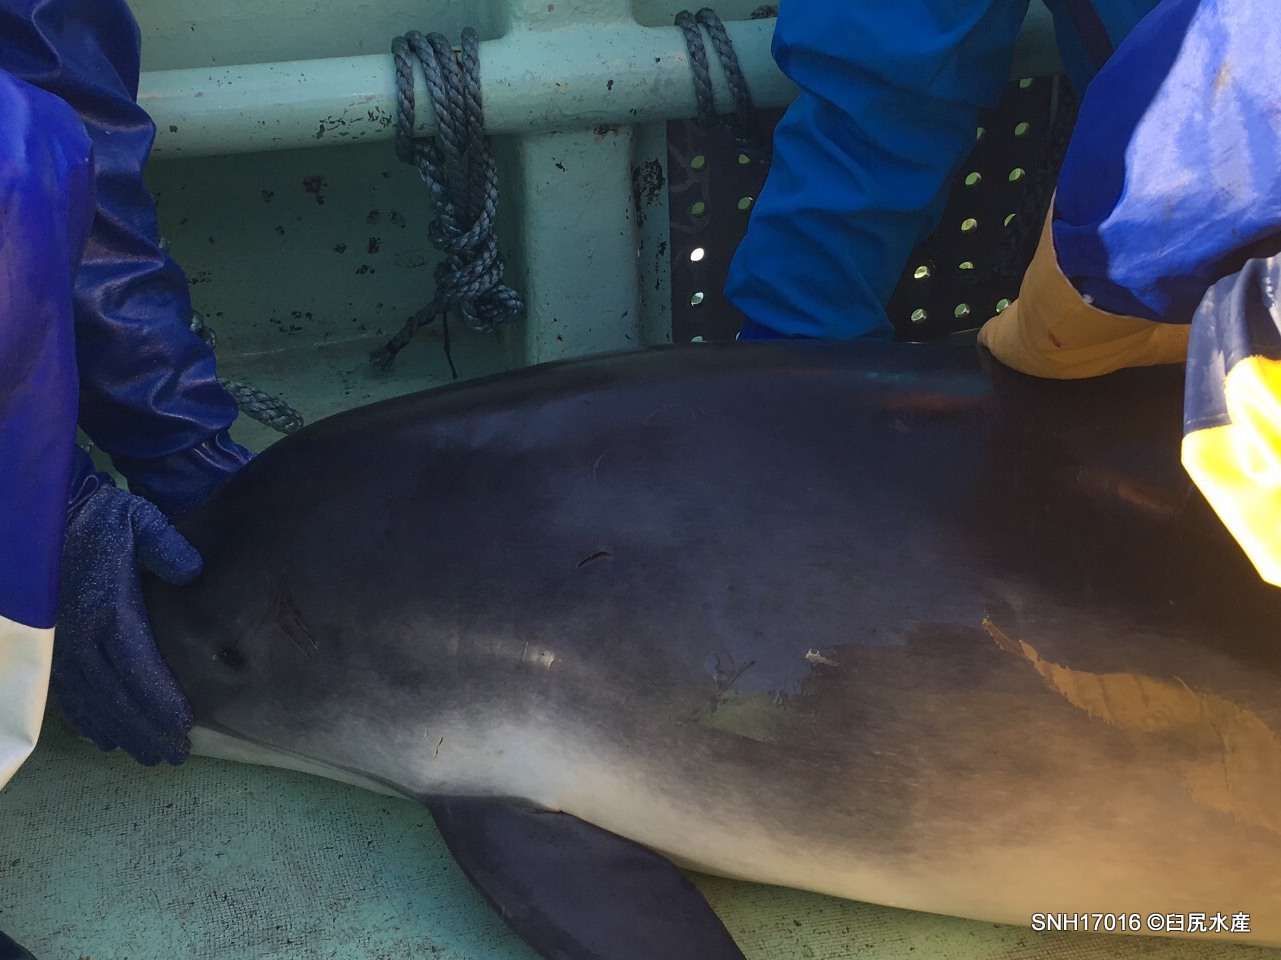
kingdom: Animalia
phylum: Chordata
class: Mammalia
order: Cetacea
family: Phocoenidae
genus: Phocoena
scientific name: Phocoena phocoena
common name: Harbour porpoise
